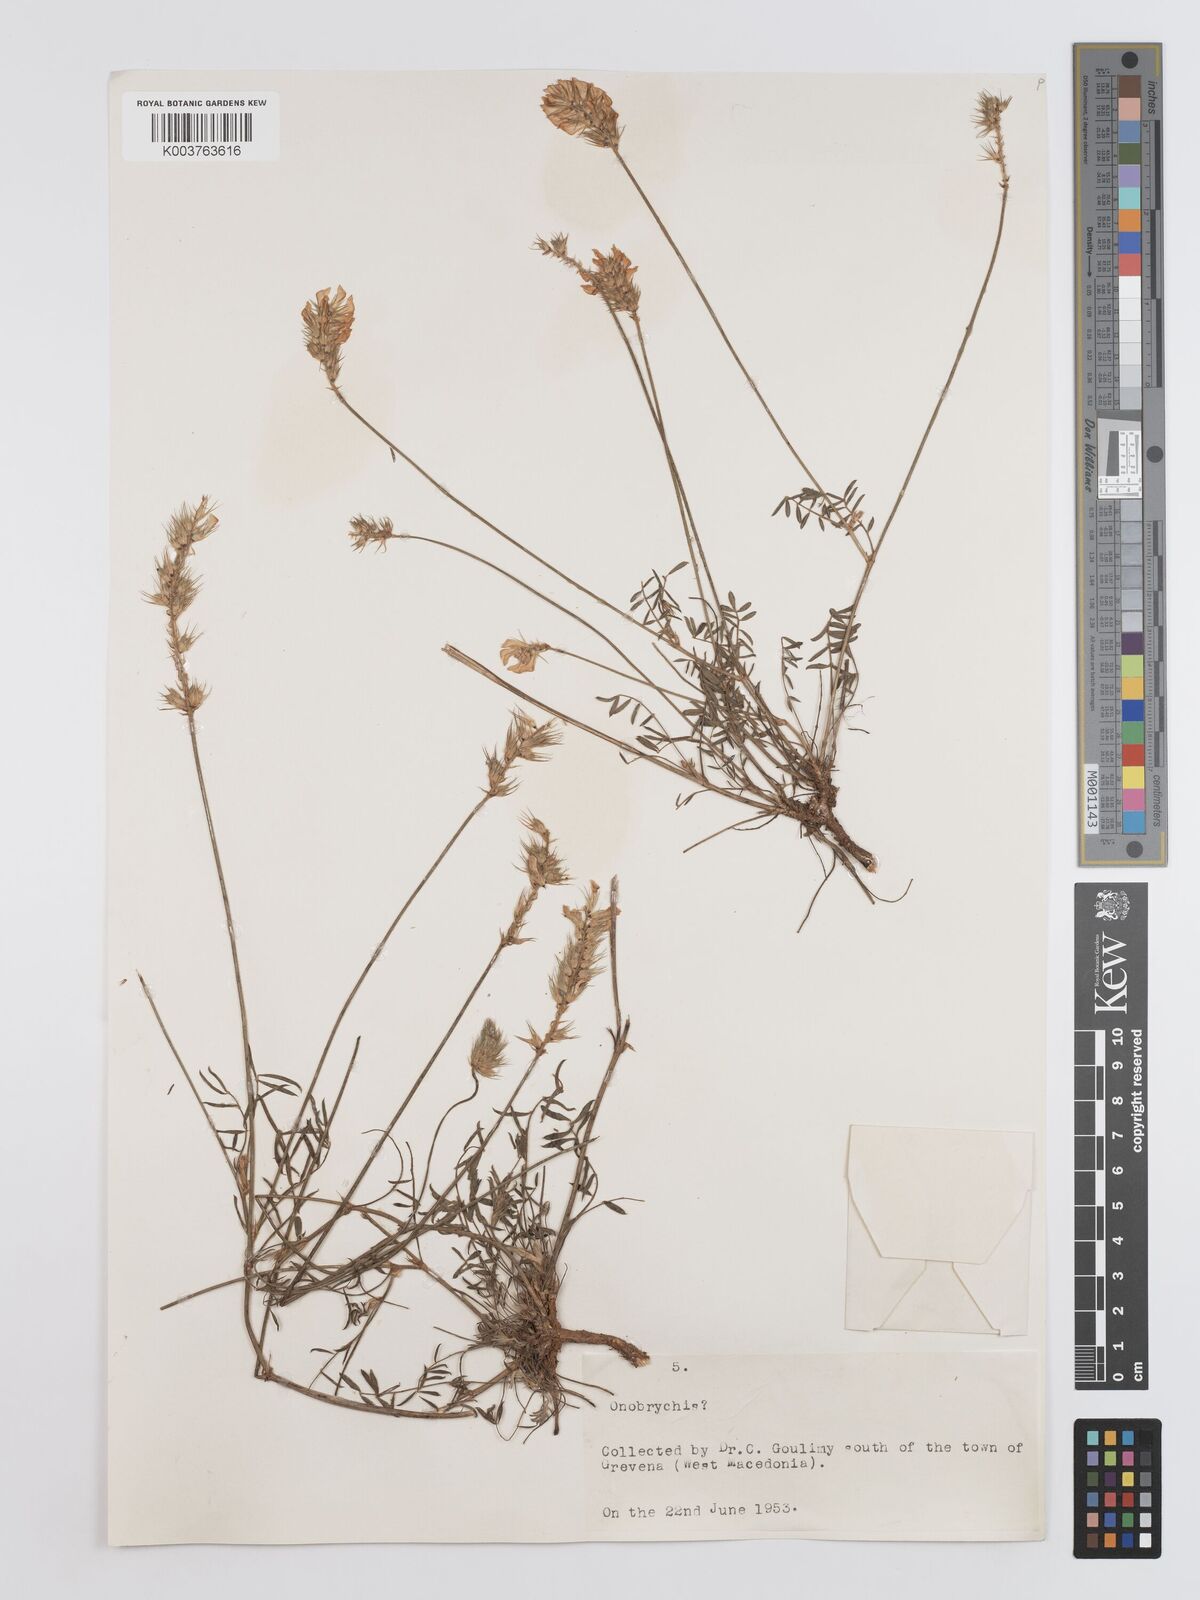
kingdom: Plantae
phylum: Tracheophyta
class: Magnoliopsida
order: Fabales
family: Fabaceae
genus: Onobrychis
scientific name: Onobrychis ebenoides
